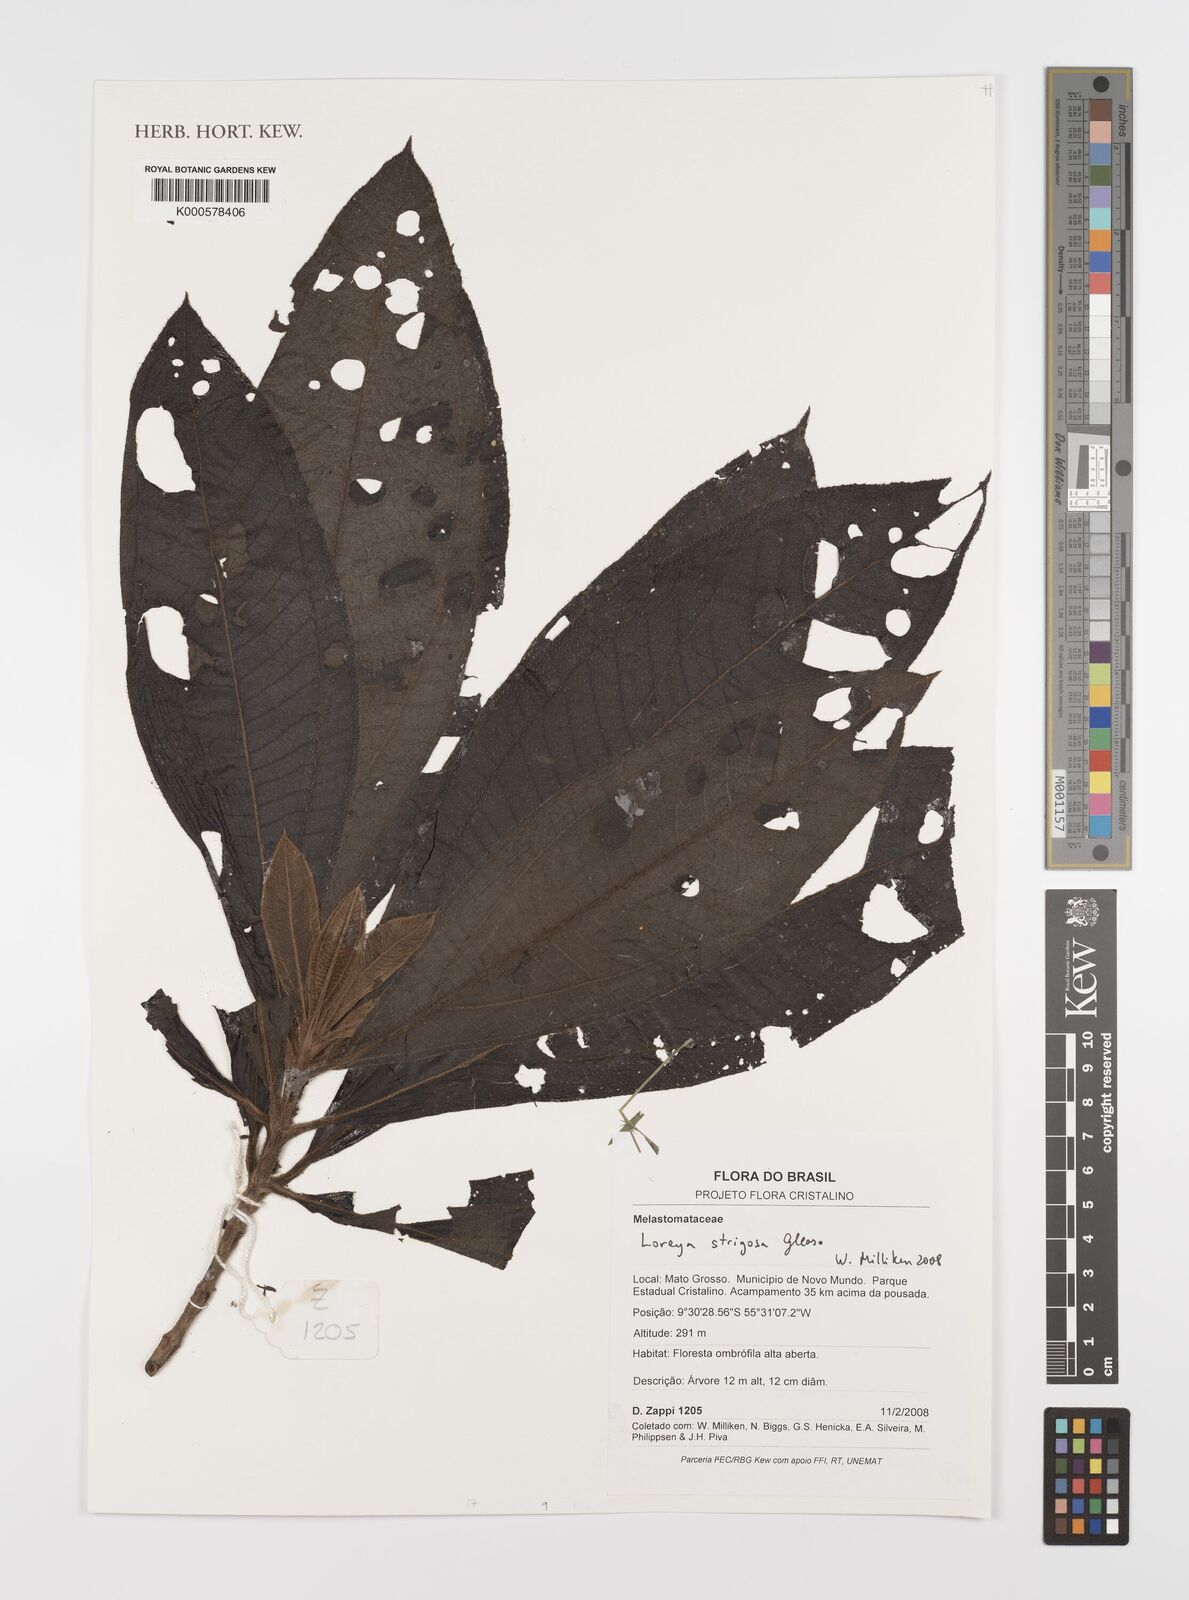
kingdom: Plantae
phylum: Tracheophyta
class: Magnoliopsida
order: Myrtales
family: Melastomataceae
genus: Bellucia
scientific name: Bellucia strigosa
